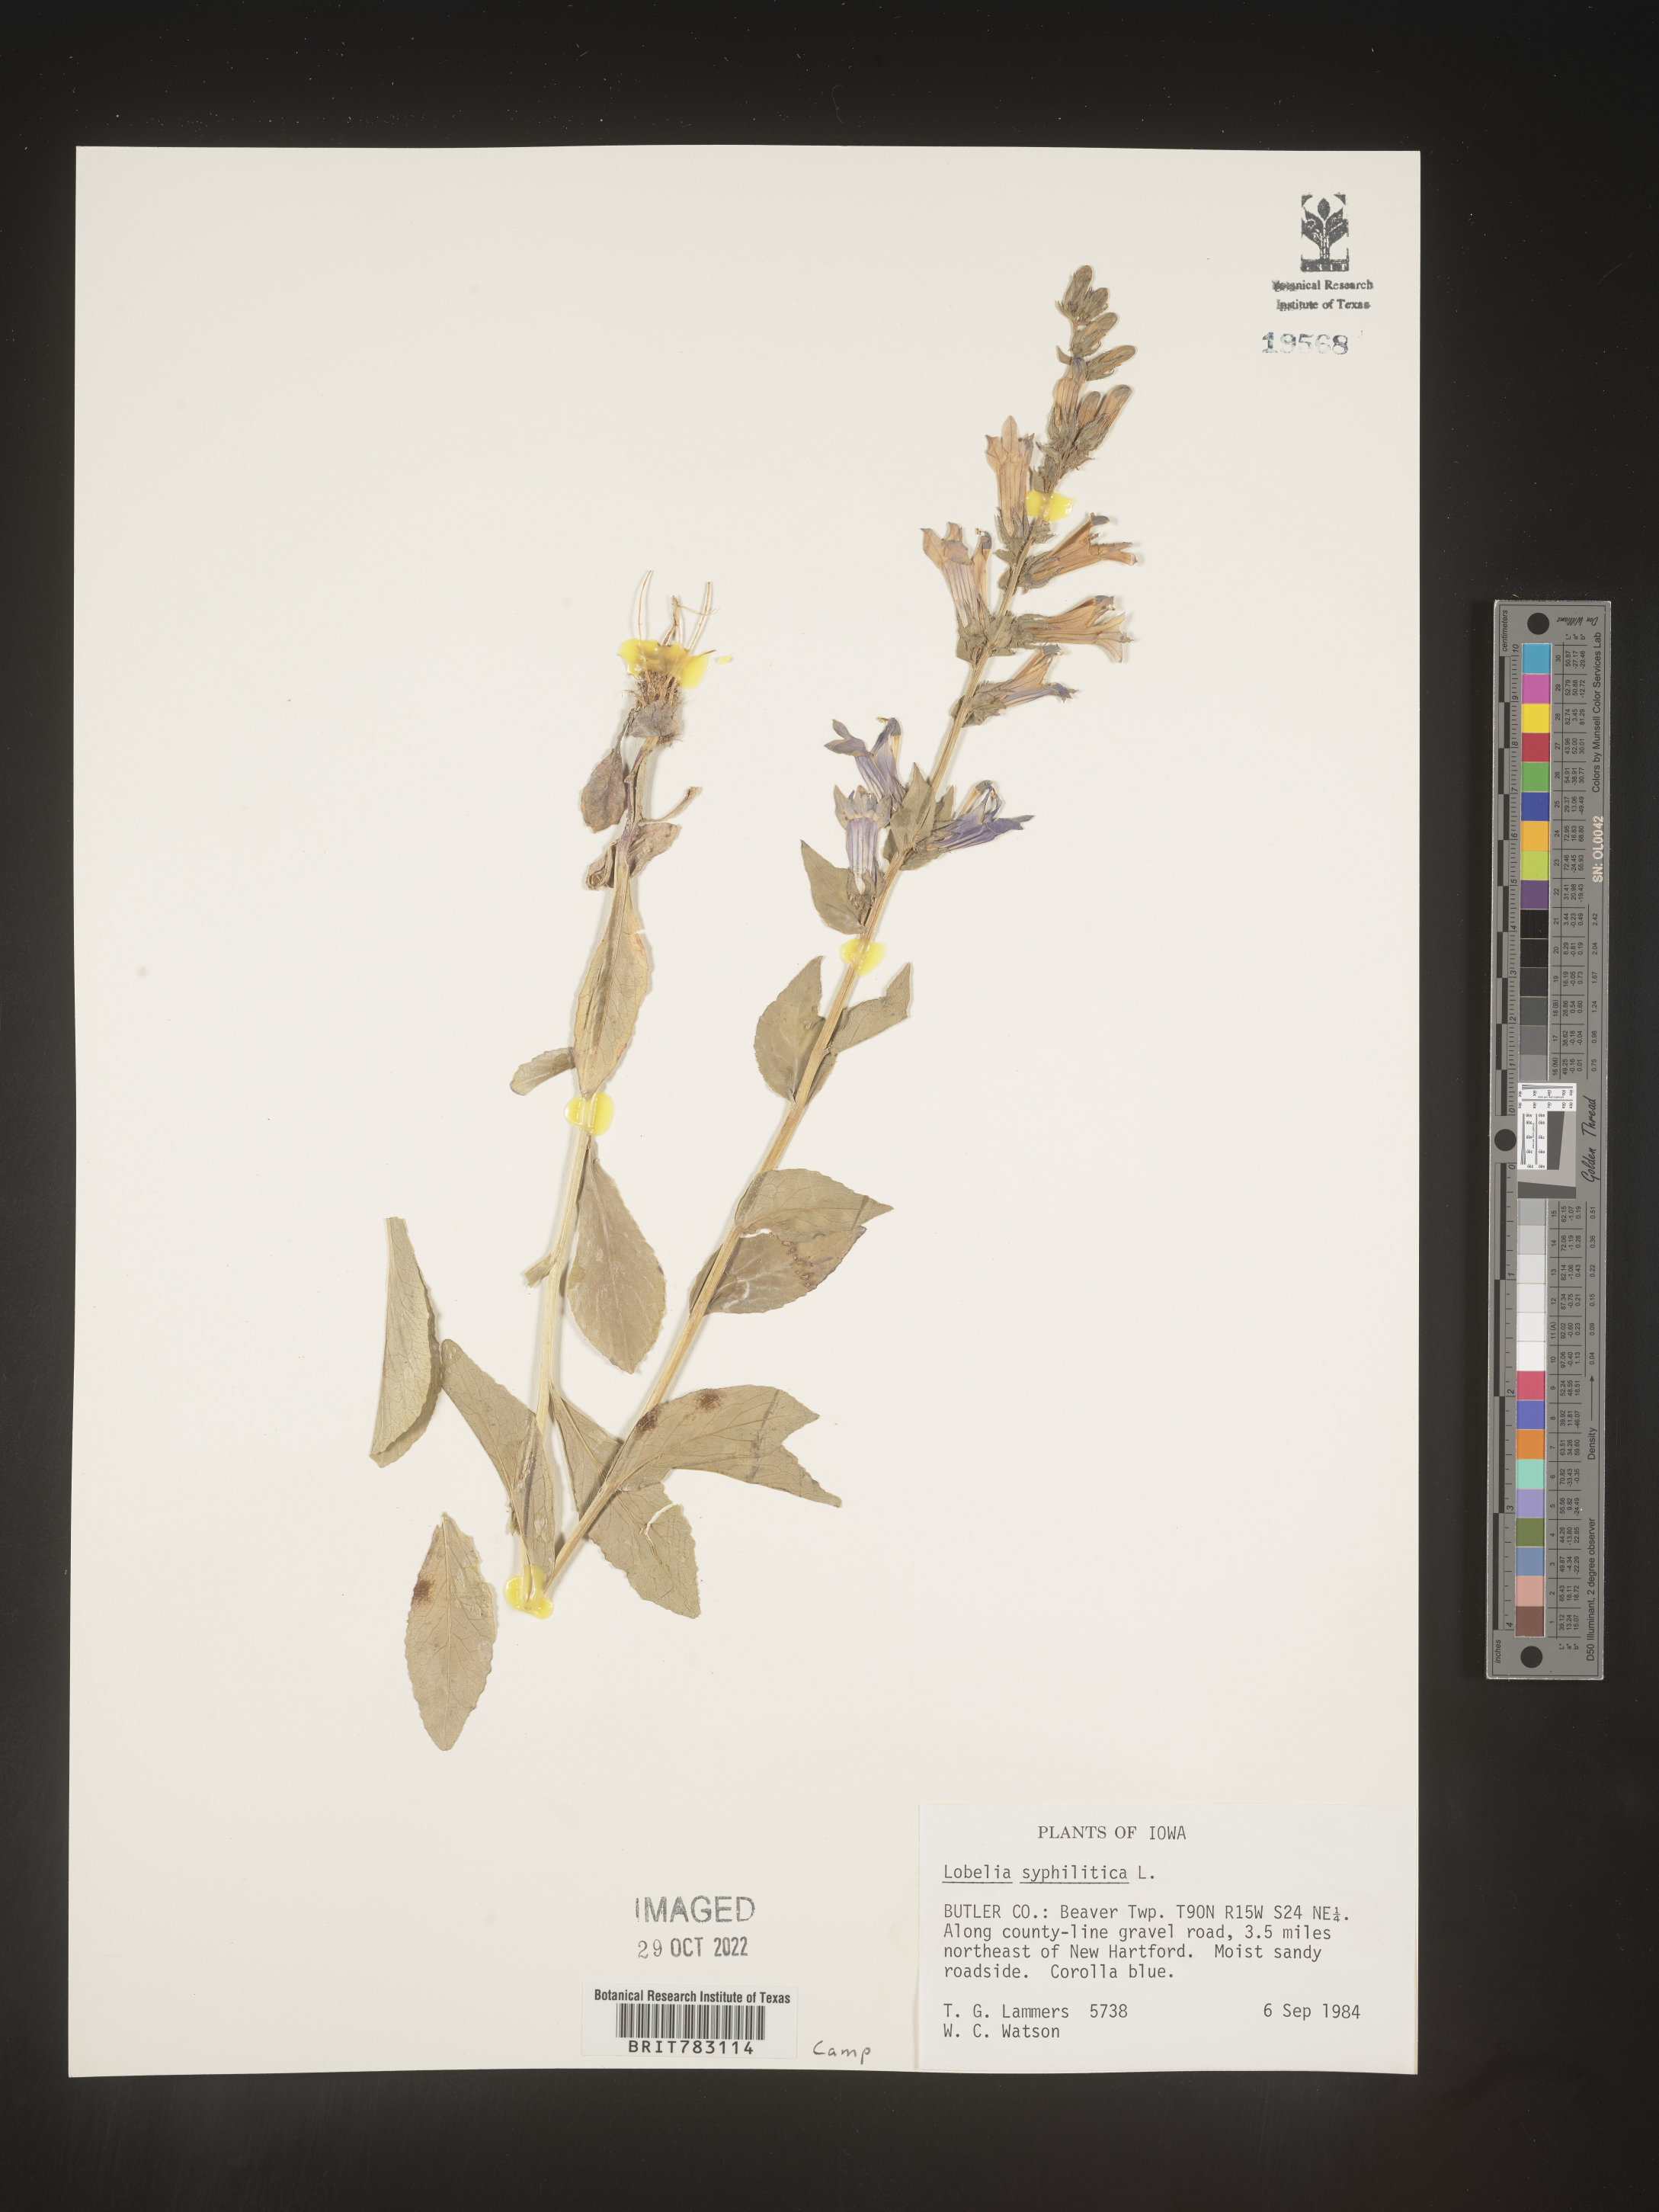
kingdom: Plantae
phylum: Tracheophyta
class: Magnoliopsida
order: Asterales
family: Campanulaceae
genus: Lobelia
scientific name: Lobelia siphilitica
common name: Great lobelia
